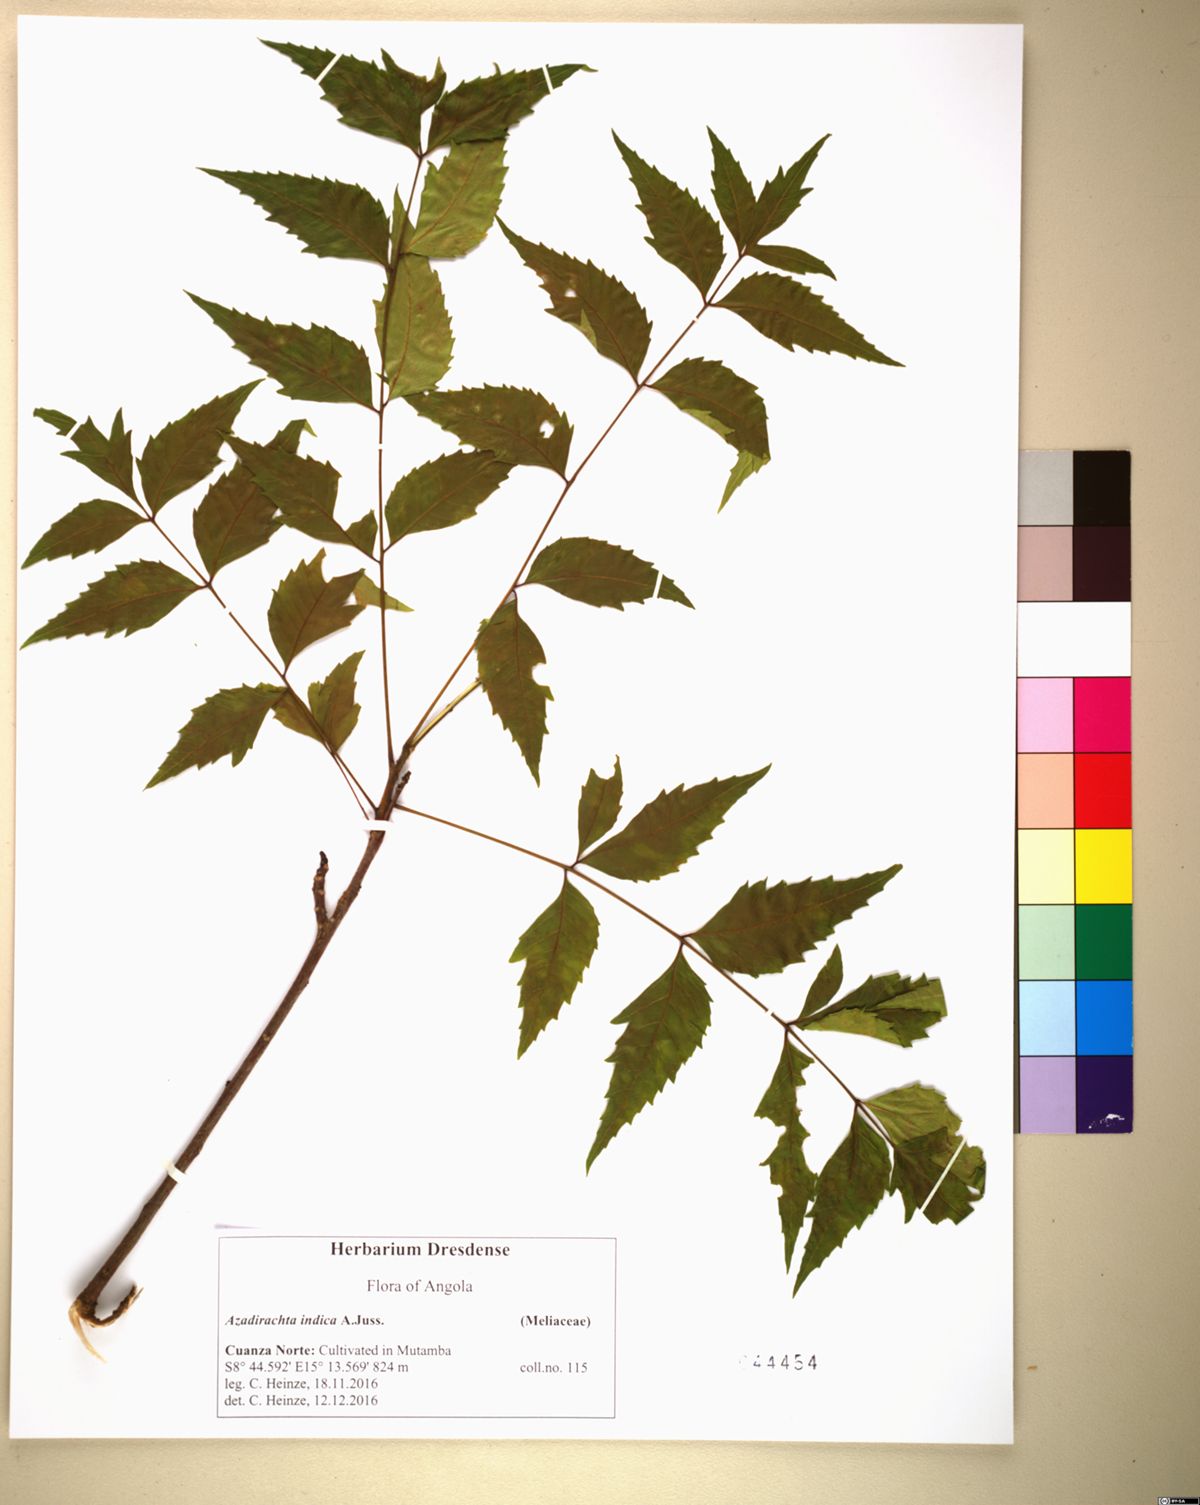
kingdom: Plantae
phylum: Tracheophyta
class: Magnoliopsida
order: Sapindales
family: Meliaceae
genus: Azadirachta
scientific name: Azadirachta indica
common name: Neem
